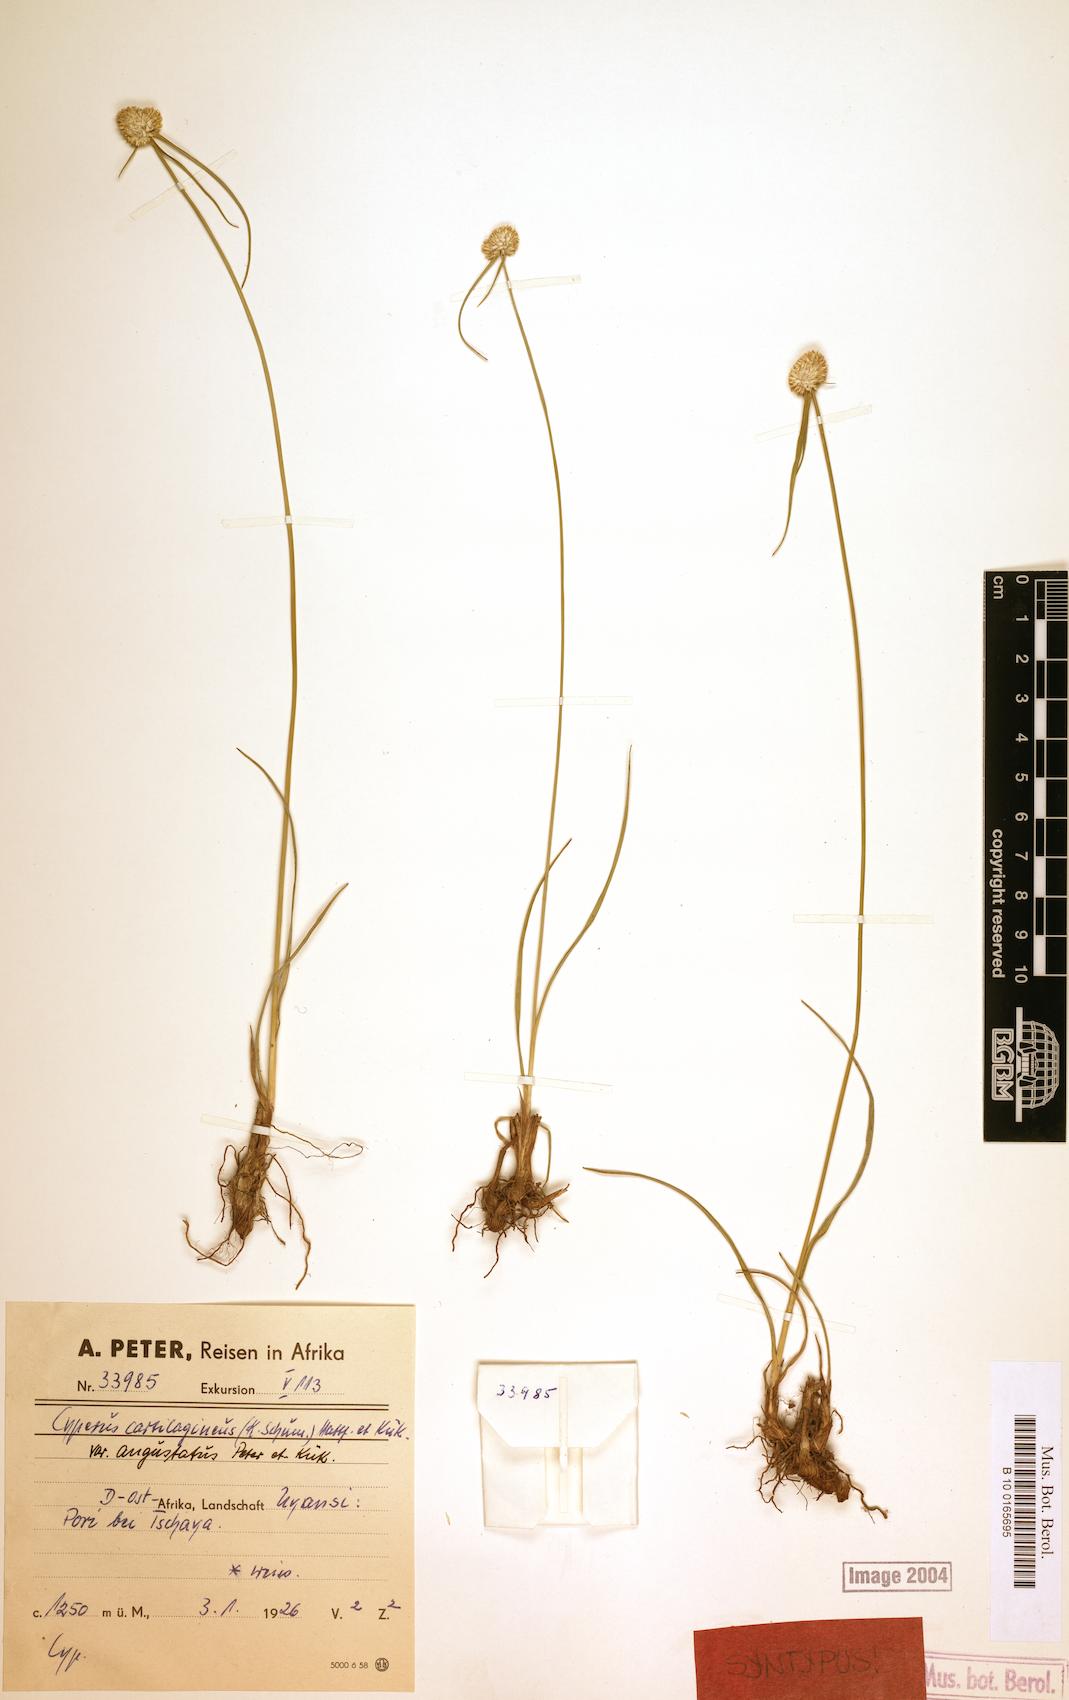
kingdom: Plantae
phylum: Tracheophyta
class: Liliopsida
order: Poales
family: Cyperaceae
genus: Cyperus
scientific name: Cyperus comosipes
